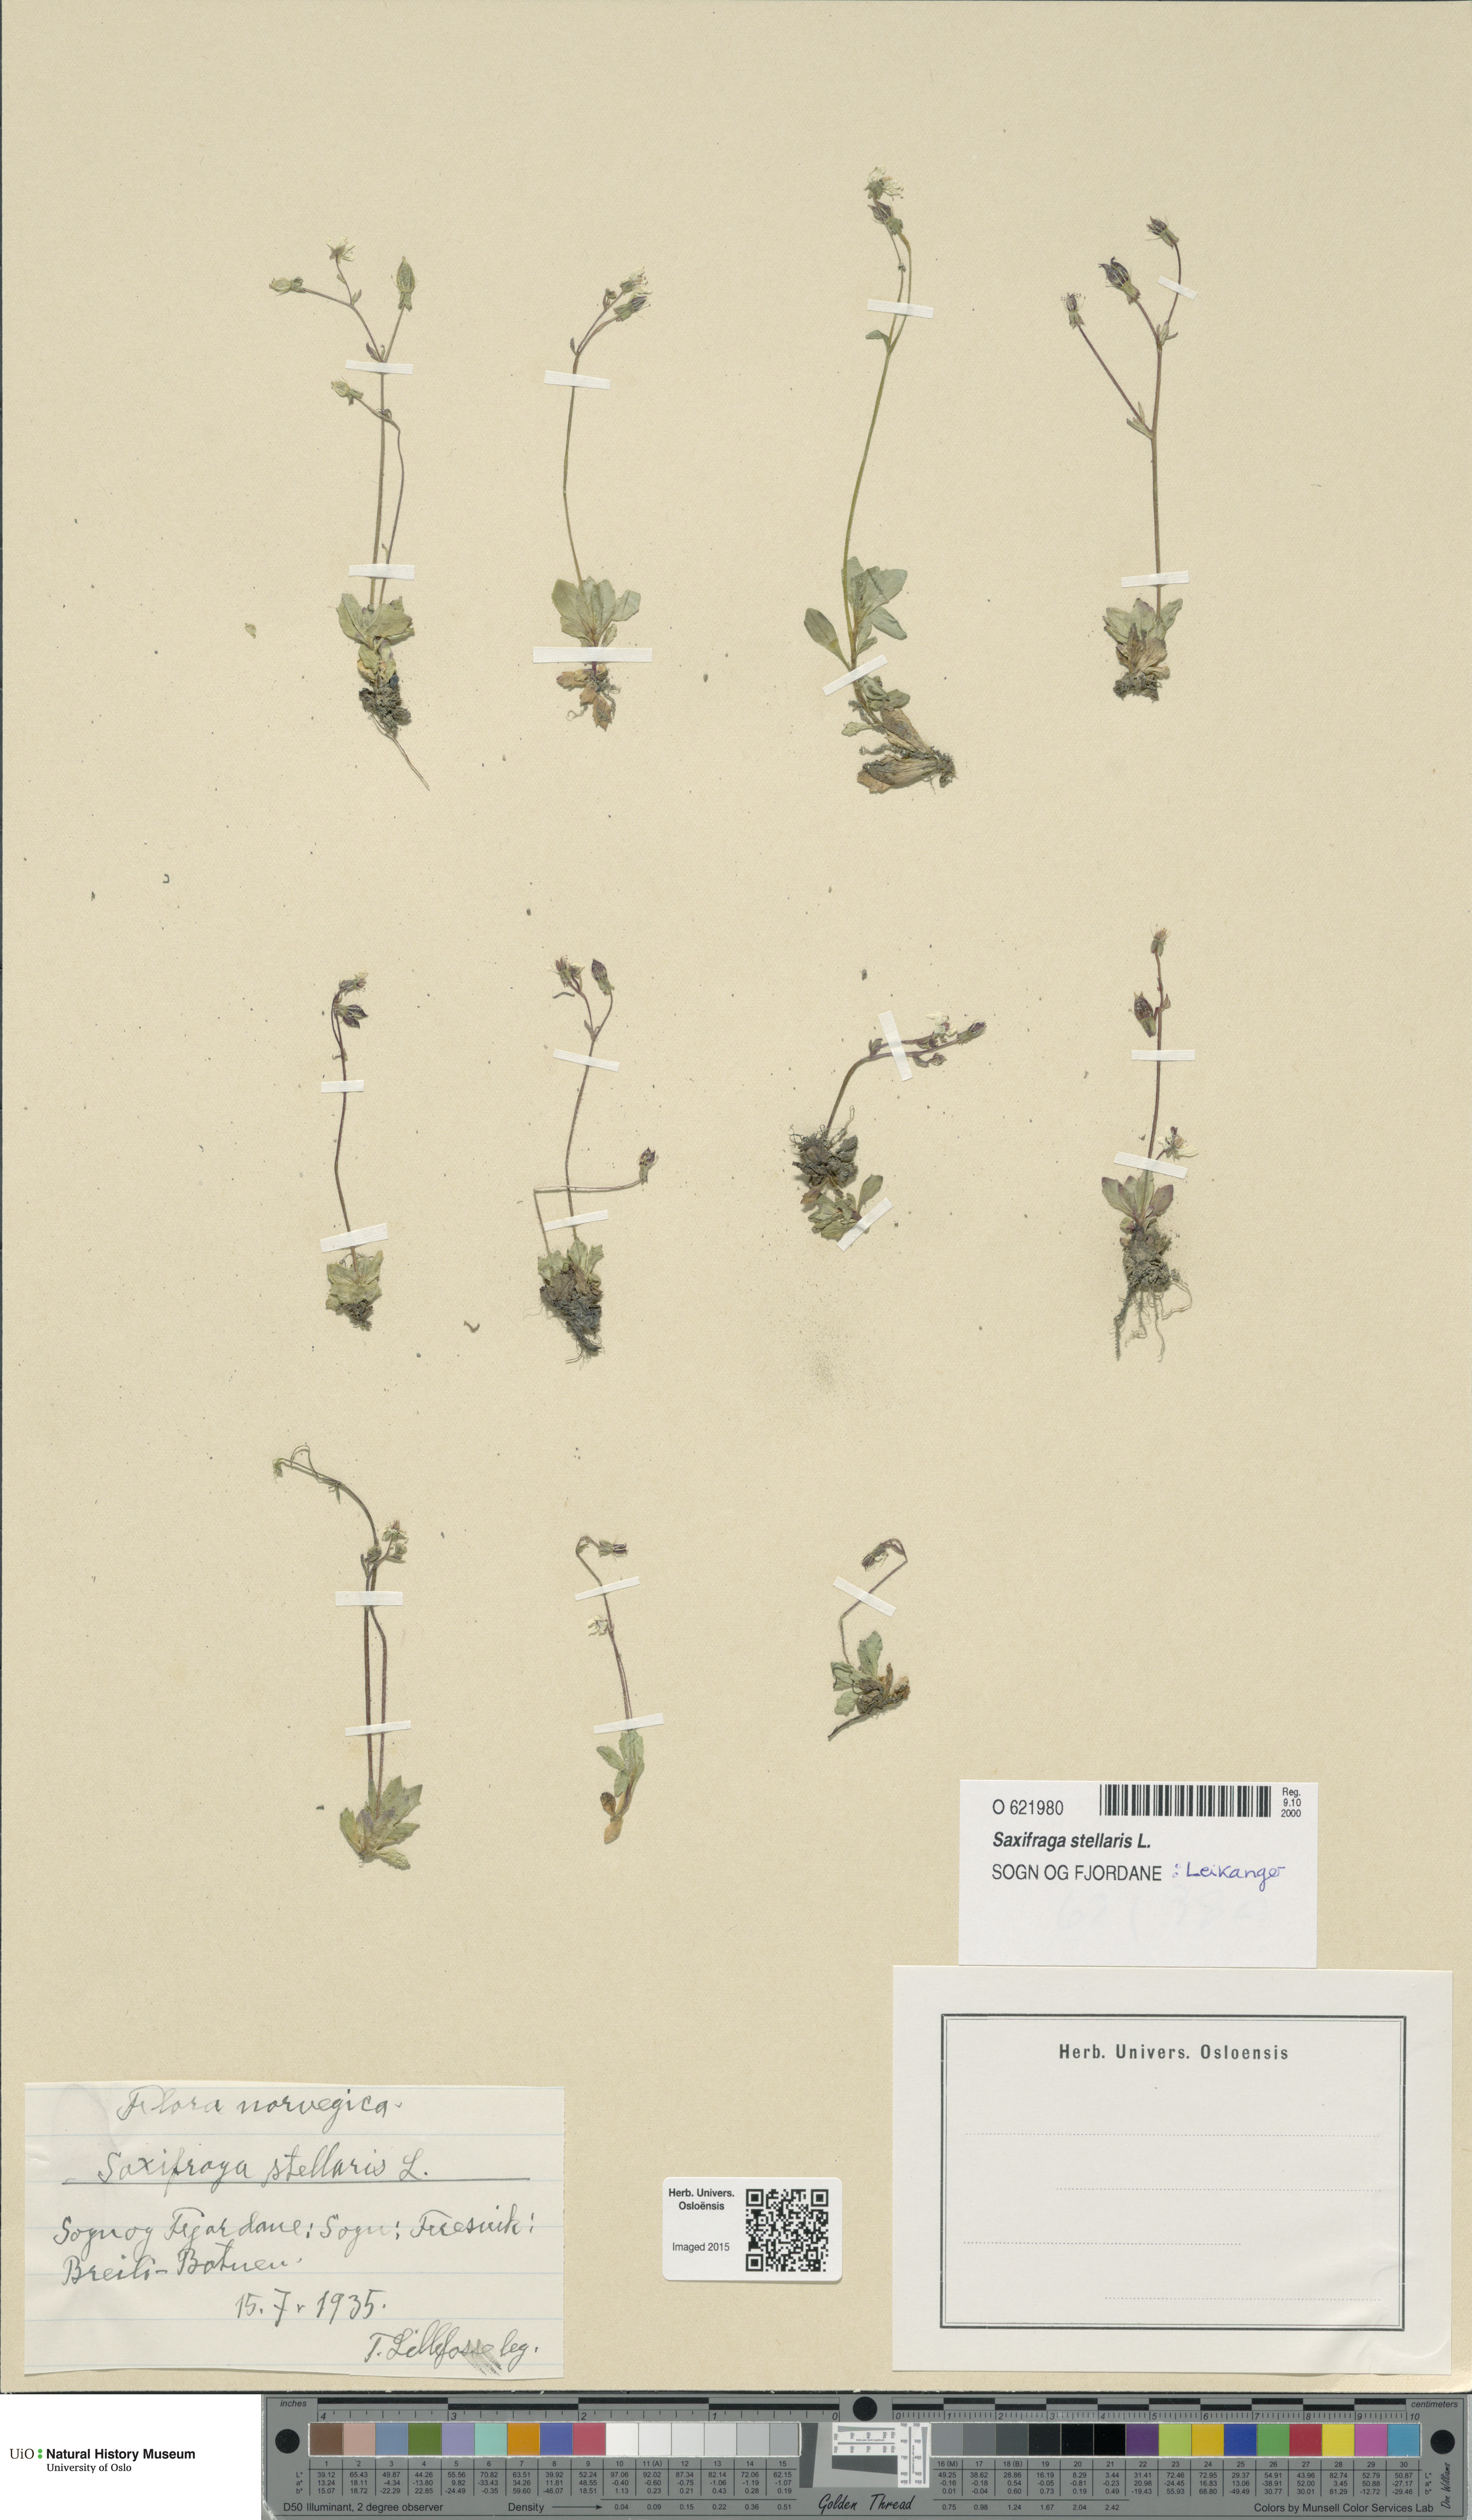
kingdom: Plantae
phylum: Tracheophyta
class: Magnoliopsida
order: Saxifragales
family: Saxifragaceae
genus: Micranthes
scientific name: Micranthes stellaris
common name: Starry saxifrage
